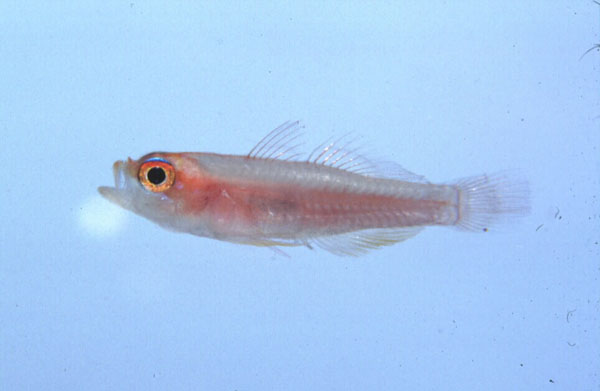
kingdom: Animalia
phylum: Chordata
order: Perciformes
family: Gobiidae
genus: Trimma
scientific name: Trimma anaima
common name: Pale dwarfgoby
